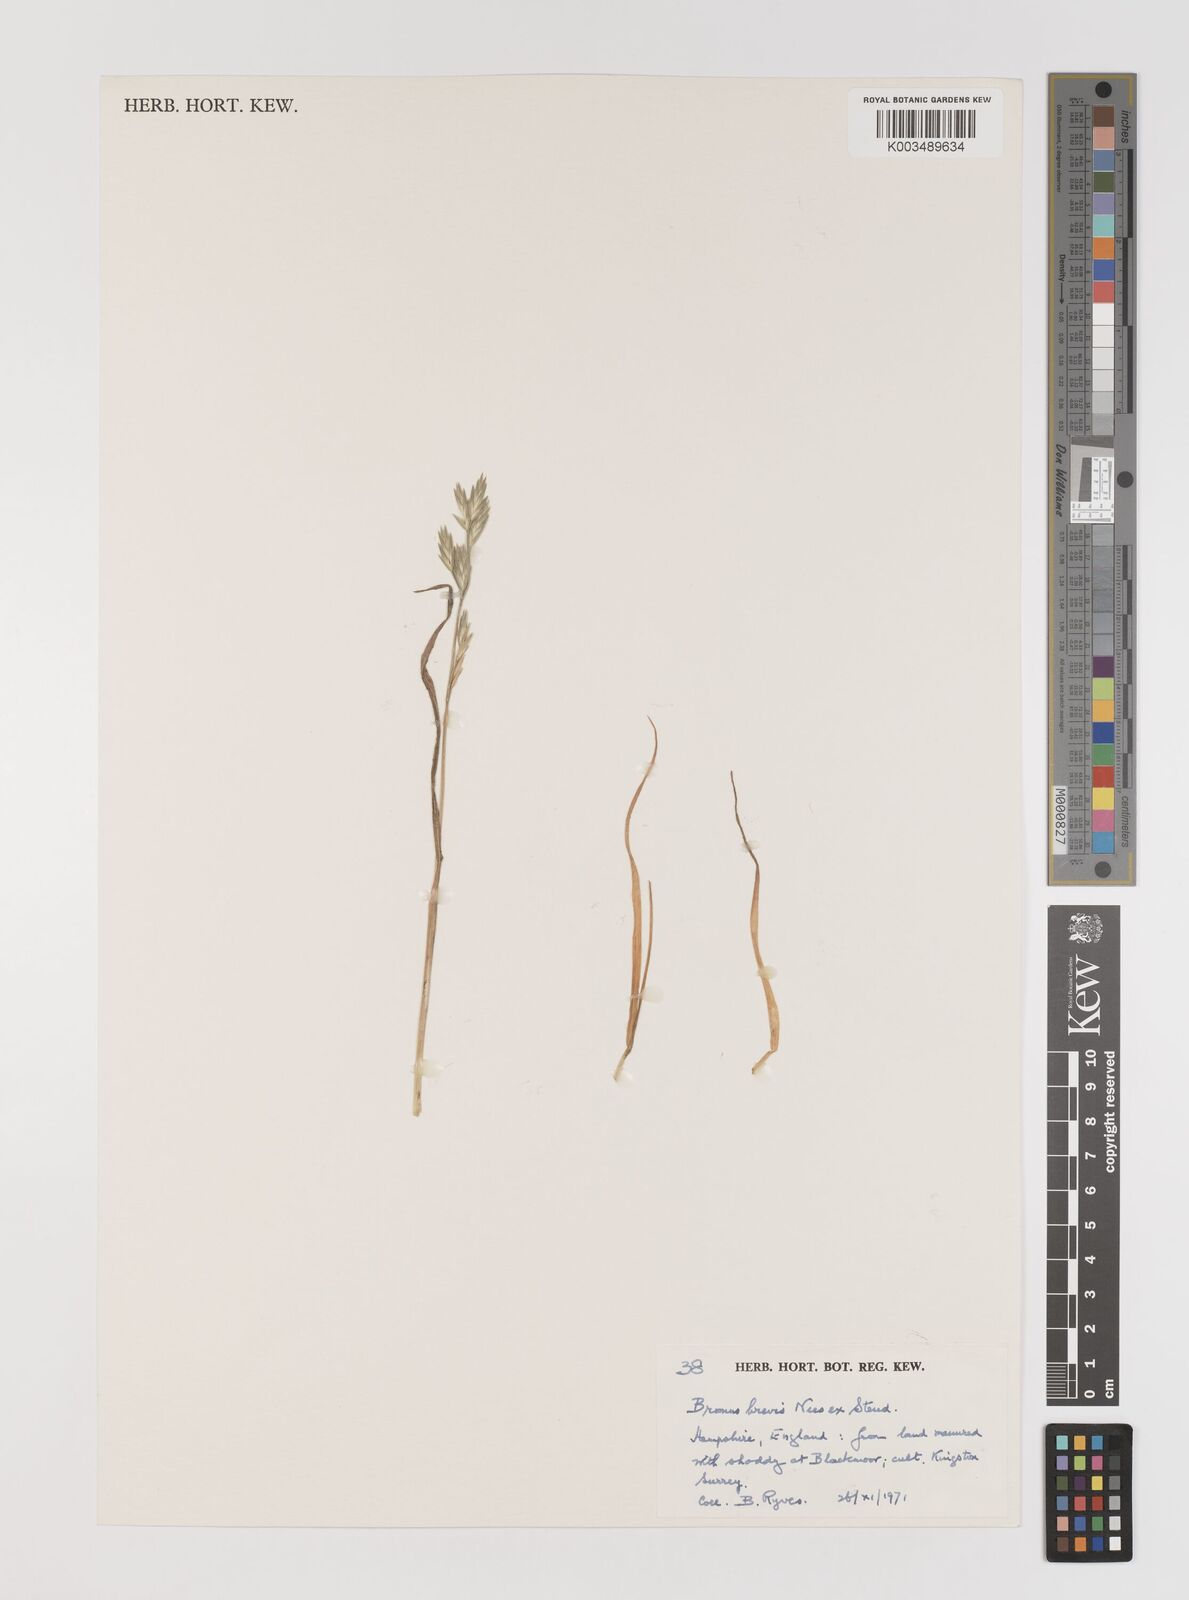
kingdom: Plantae
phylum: Tracheophyta
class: Liliopsida
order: Poales
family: Poaceae
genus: Bromus
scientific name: Bromus catharticus
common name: Rescuegrass
